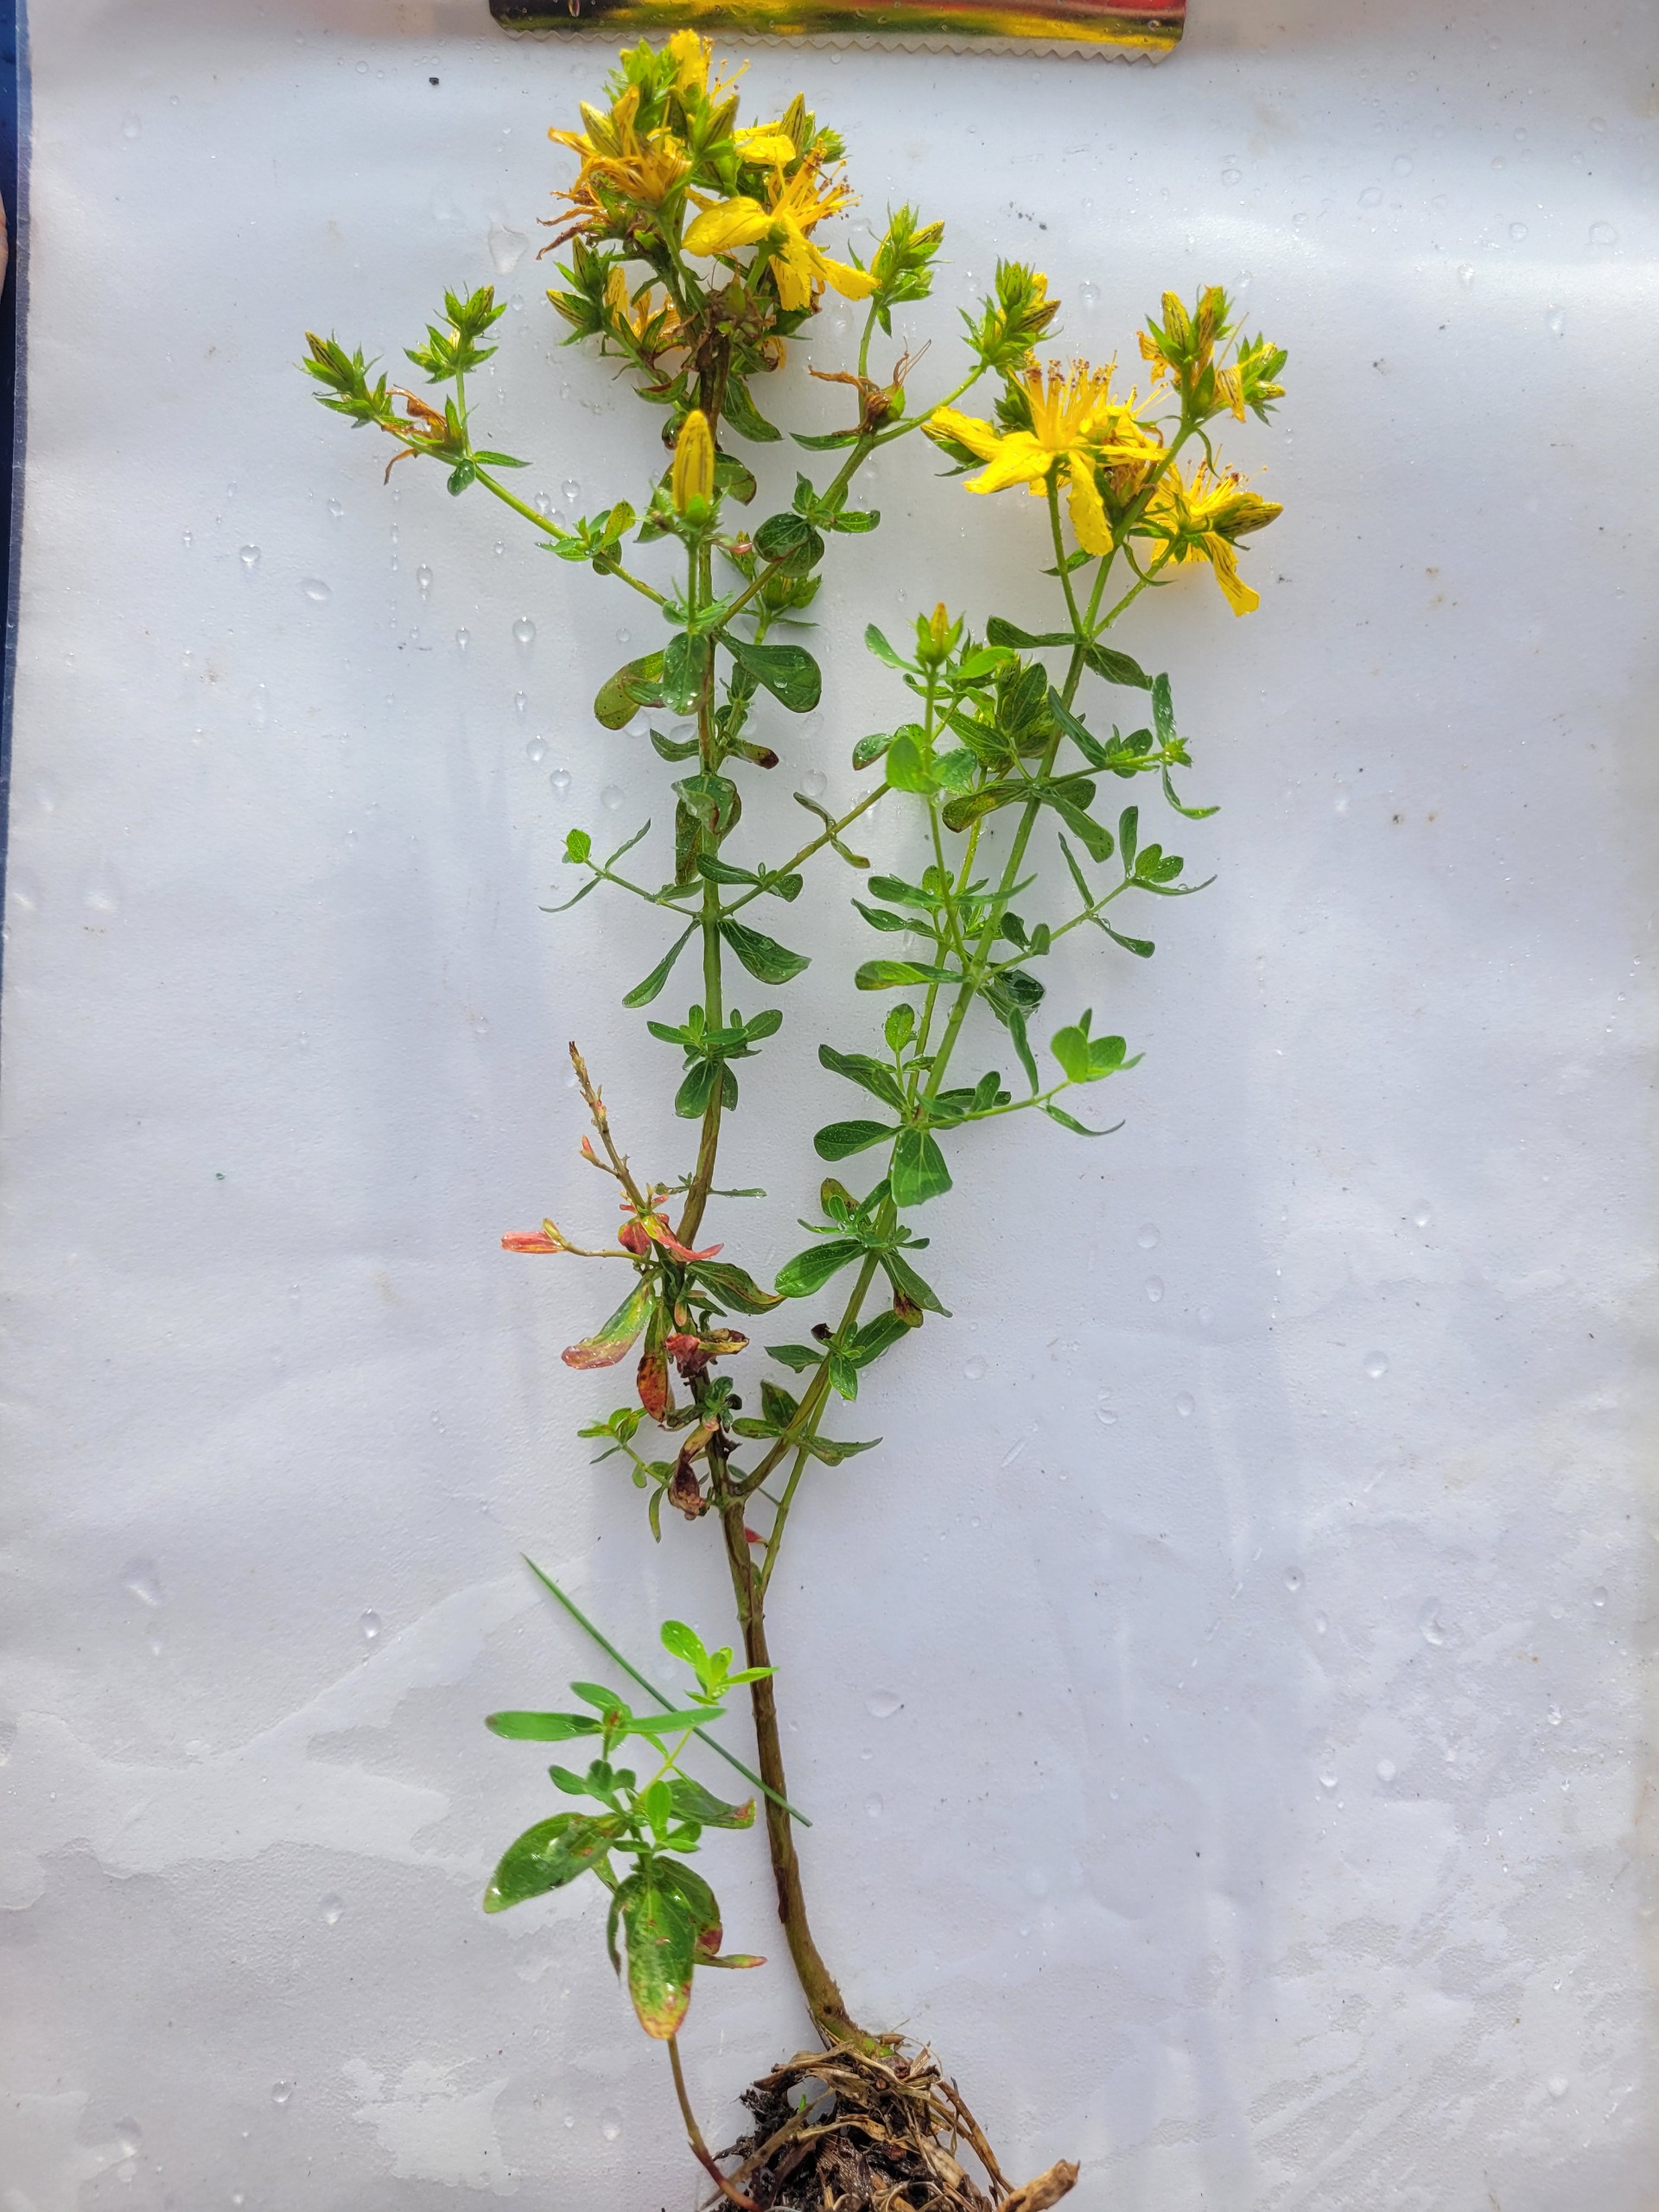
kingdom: Plantae
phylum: Tracheophyta
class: Magnoliopsida
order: Malpighiales
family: Hypericaceae
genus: Hypericum
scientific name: Hypericum perforatum
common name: Prikbladet perikon
